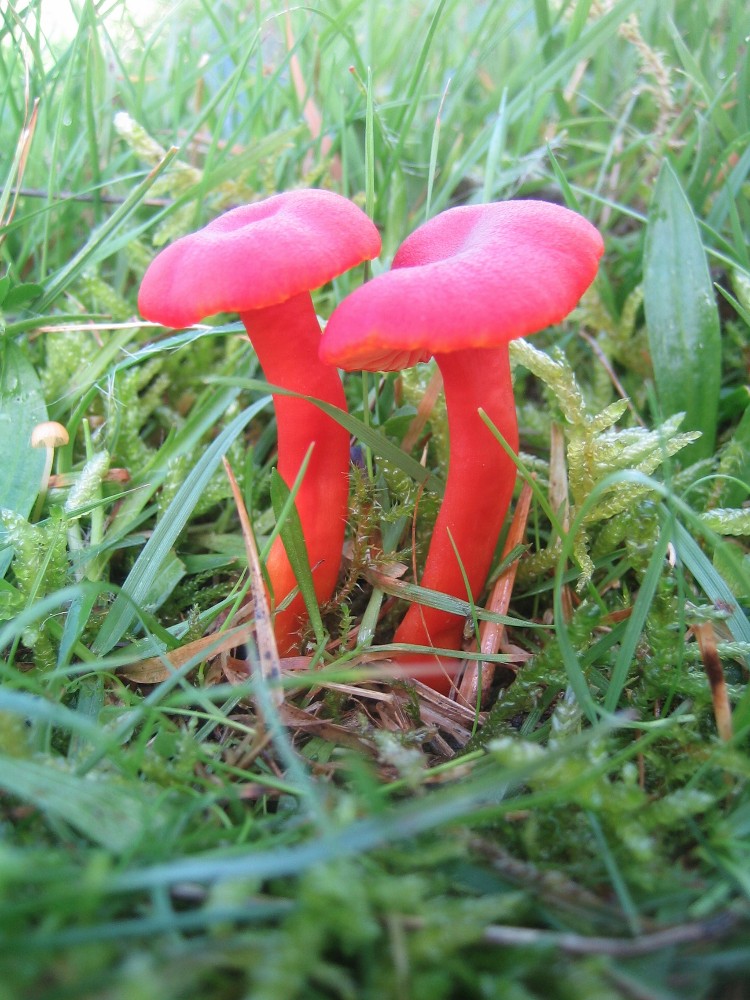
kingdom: Fungi
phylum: Basidiomycota
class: Agaricomycetes
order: Agaricales
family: Hygrophoraceae
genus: Hygrocybe
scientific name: Hygrocybe phaeococcinea
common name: sortdugget vokshat
